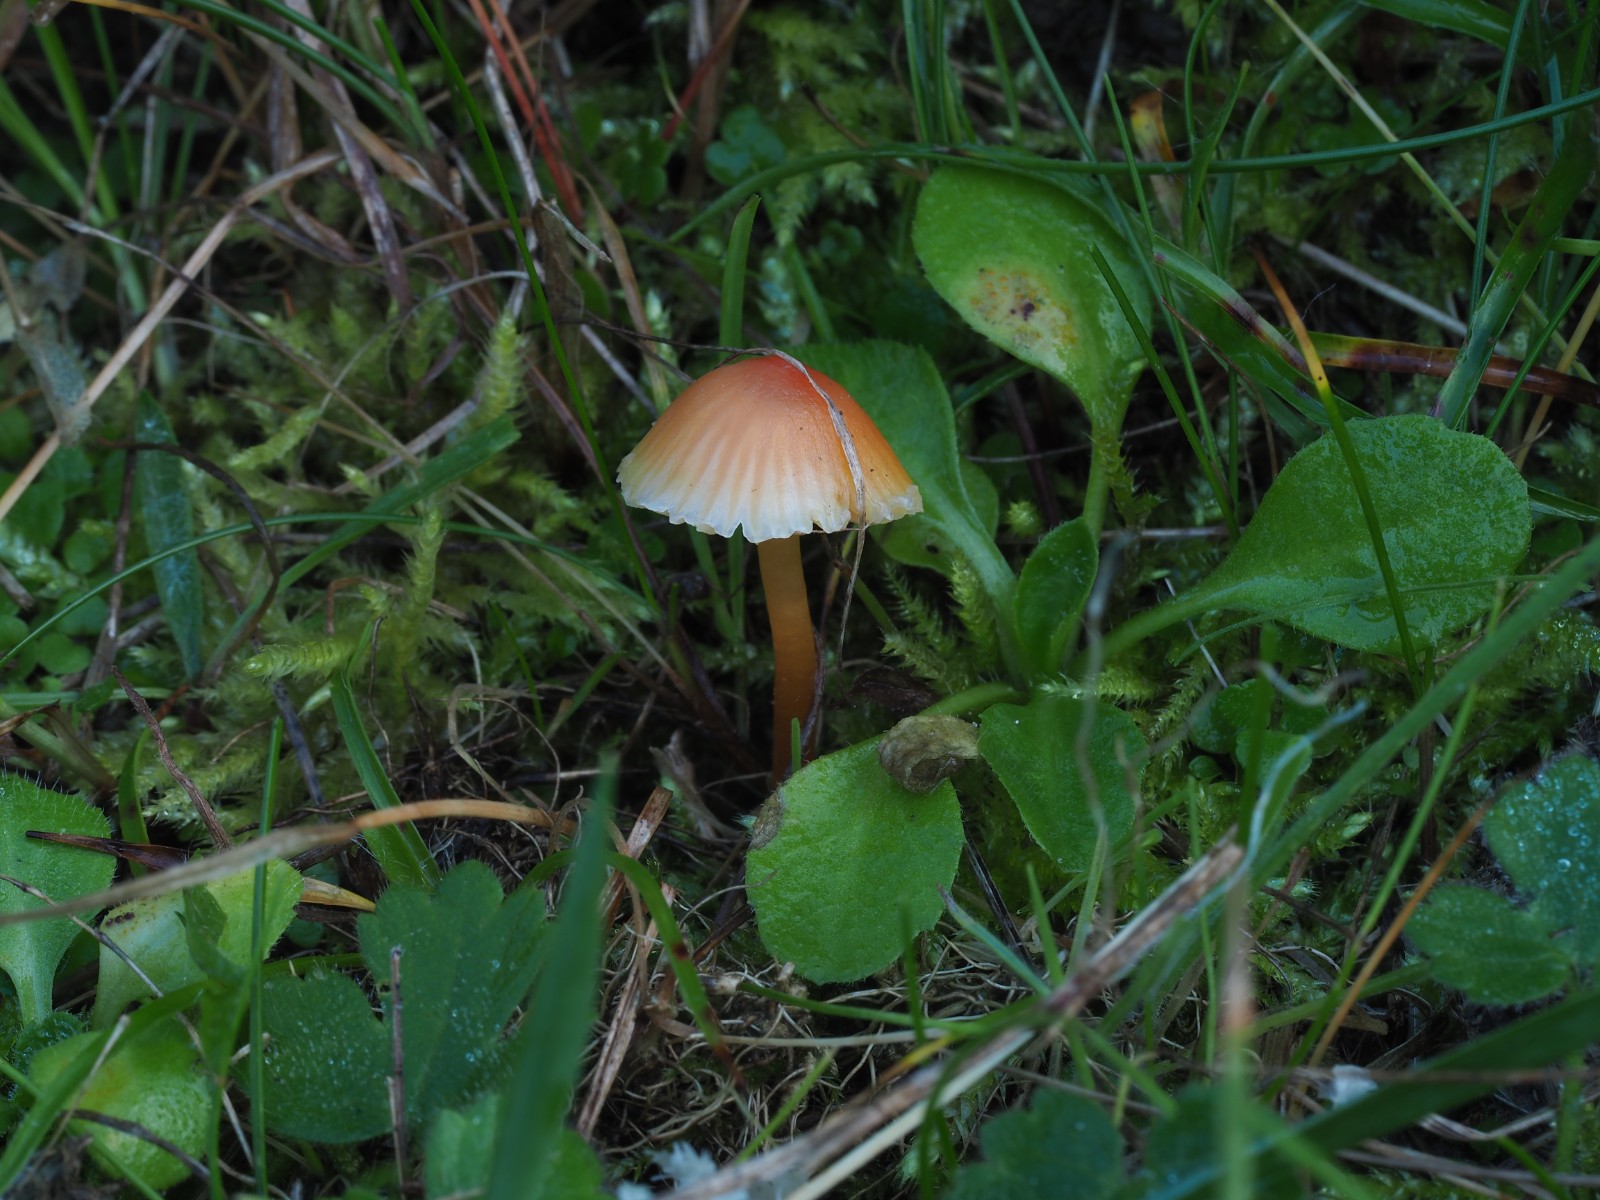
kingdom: Fungi
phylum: Basidiomycota
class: Agaricomycetes
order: Agaricales
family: Hygrophoraceae
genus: Hygrocybe
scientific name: Hygrocybe mucronella
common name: bitter vokshat
